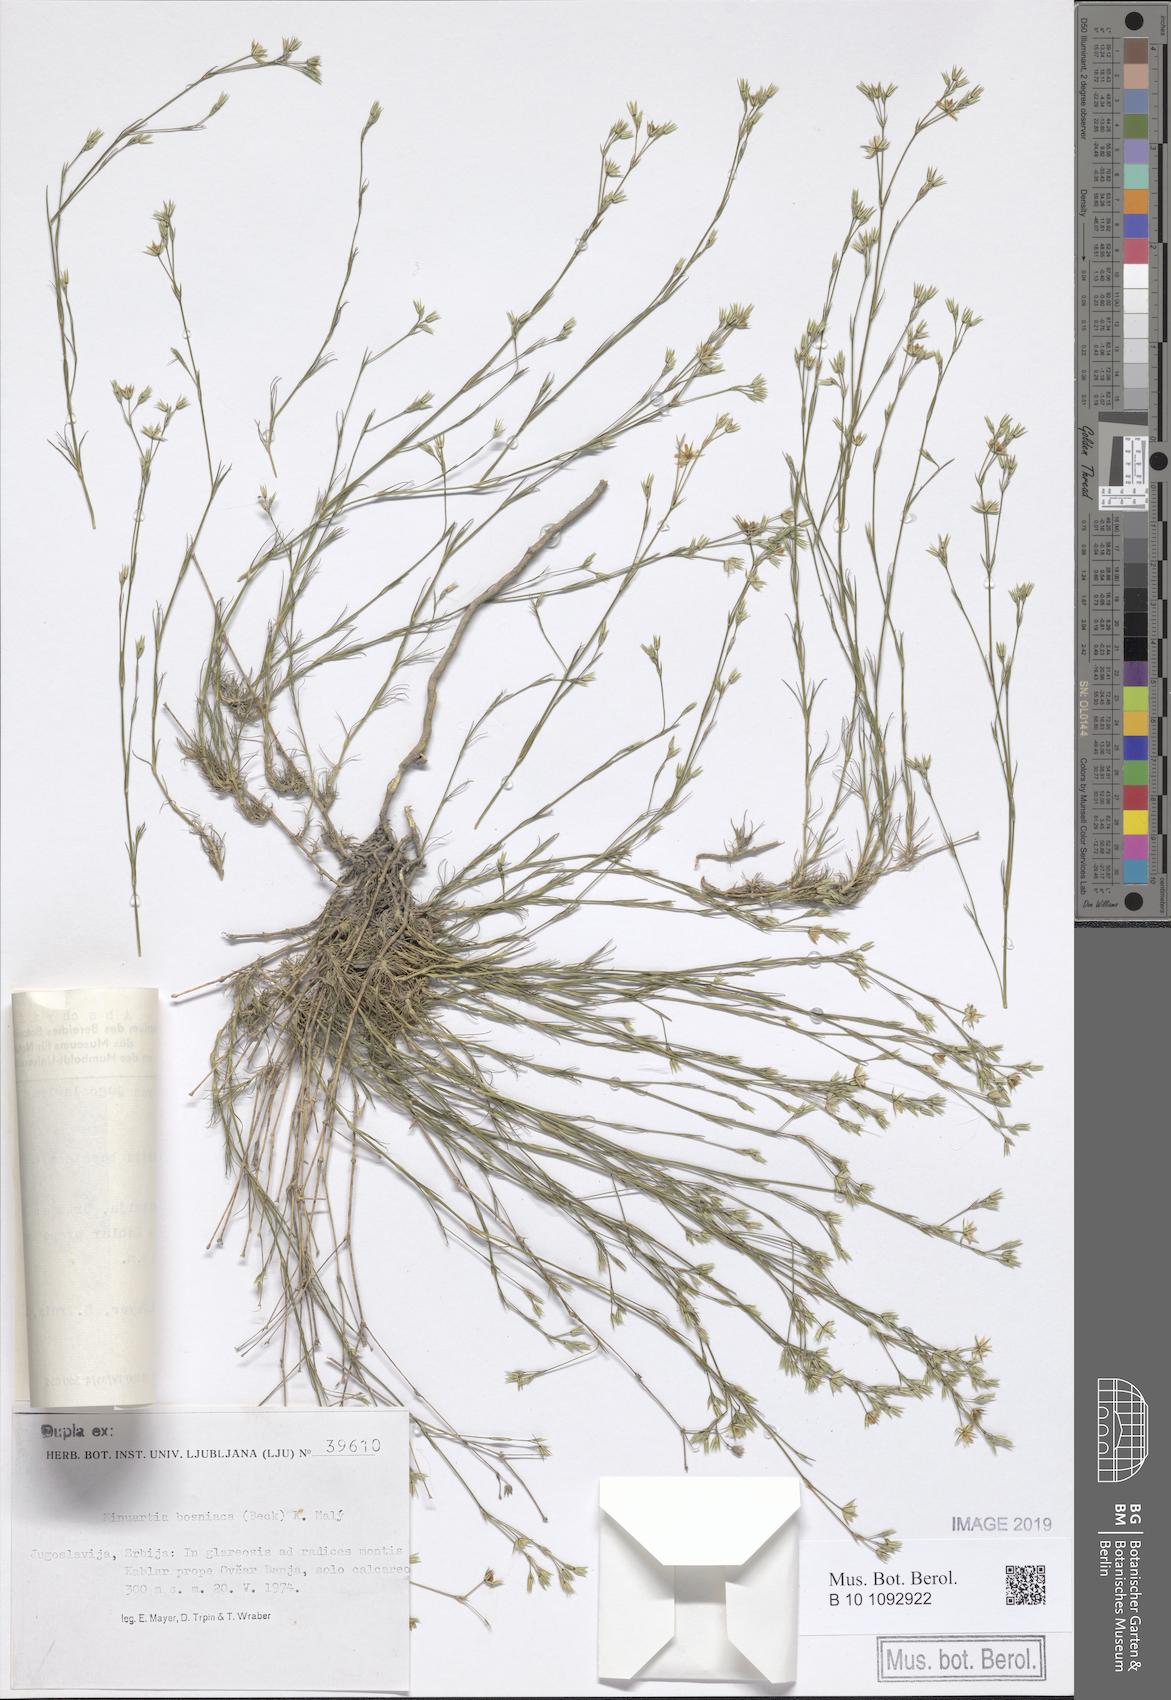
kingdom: Plantae
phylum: Tracheophyta
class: Magnoliopsida
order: Caryophyllales
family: Caryophyllaceae
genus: Minuartia
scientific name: Minuartia bosniaca
